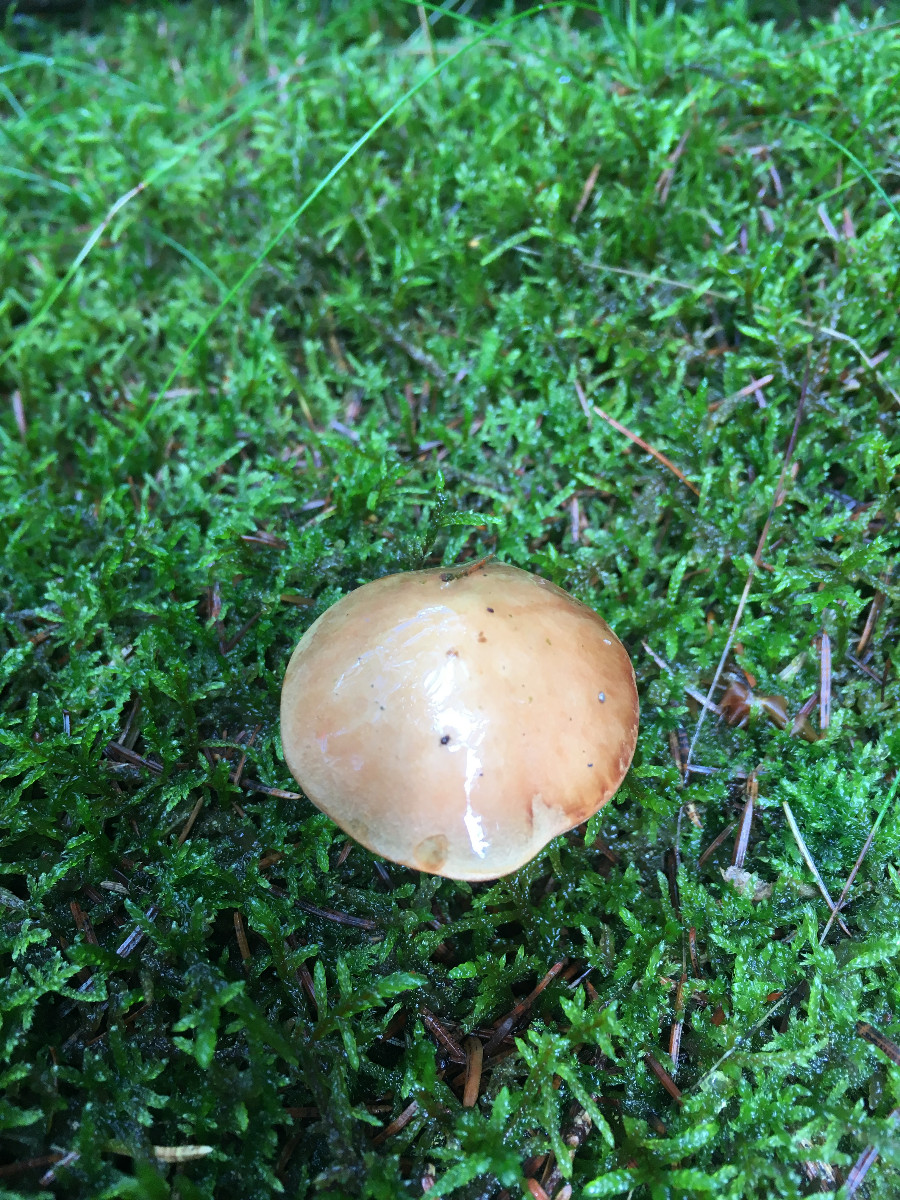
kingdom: Fungi
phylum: Basidiomycota
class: Agaricomycetes
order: Boletales
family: Boletaceae
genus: Chalciporus
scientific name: Chalciporus piperatus
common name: peberrørhat
